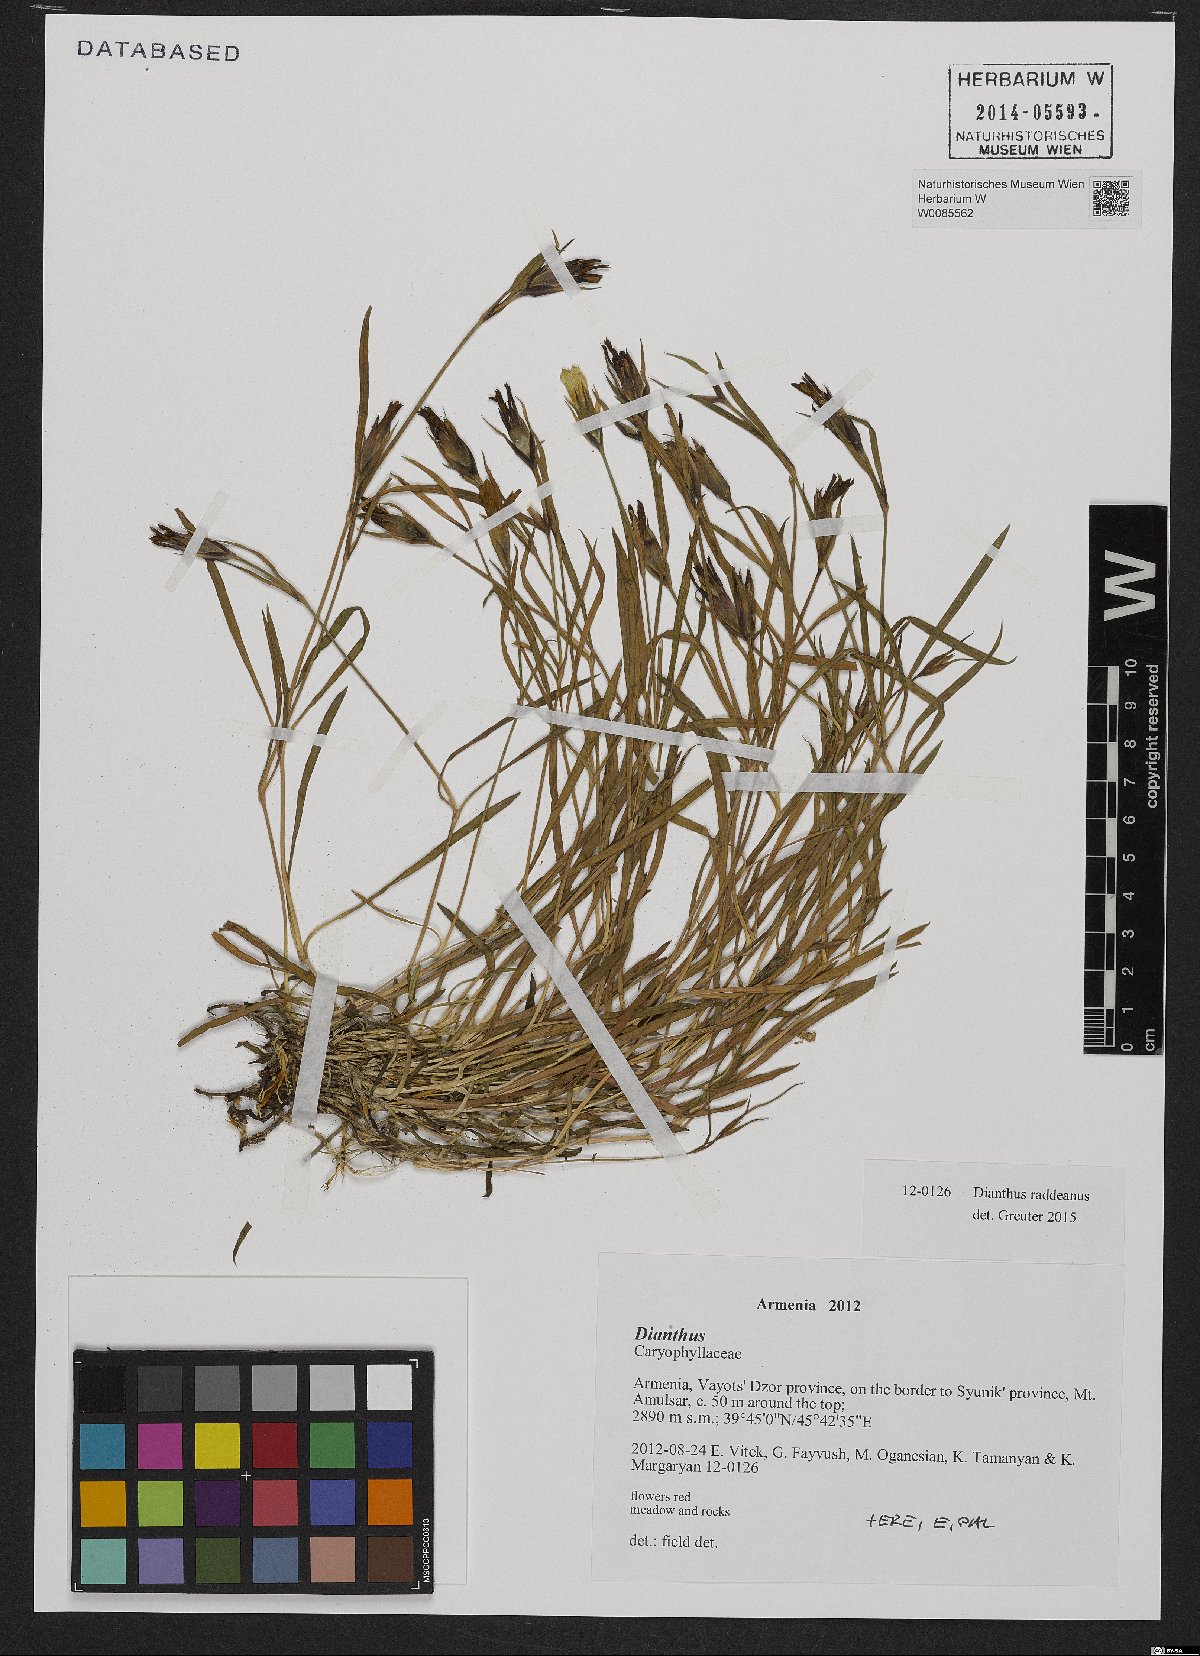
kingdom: Plantae
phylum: Tracheophyta
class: Magnoliopsida
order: Caryophyllales
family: Caryophyllaceae
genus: Dianthus
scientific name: Dianthus raddeanus
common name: Radde's pink
